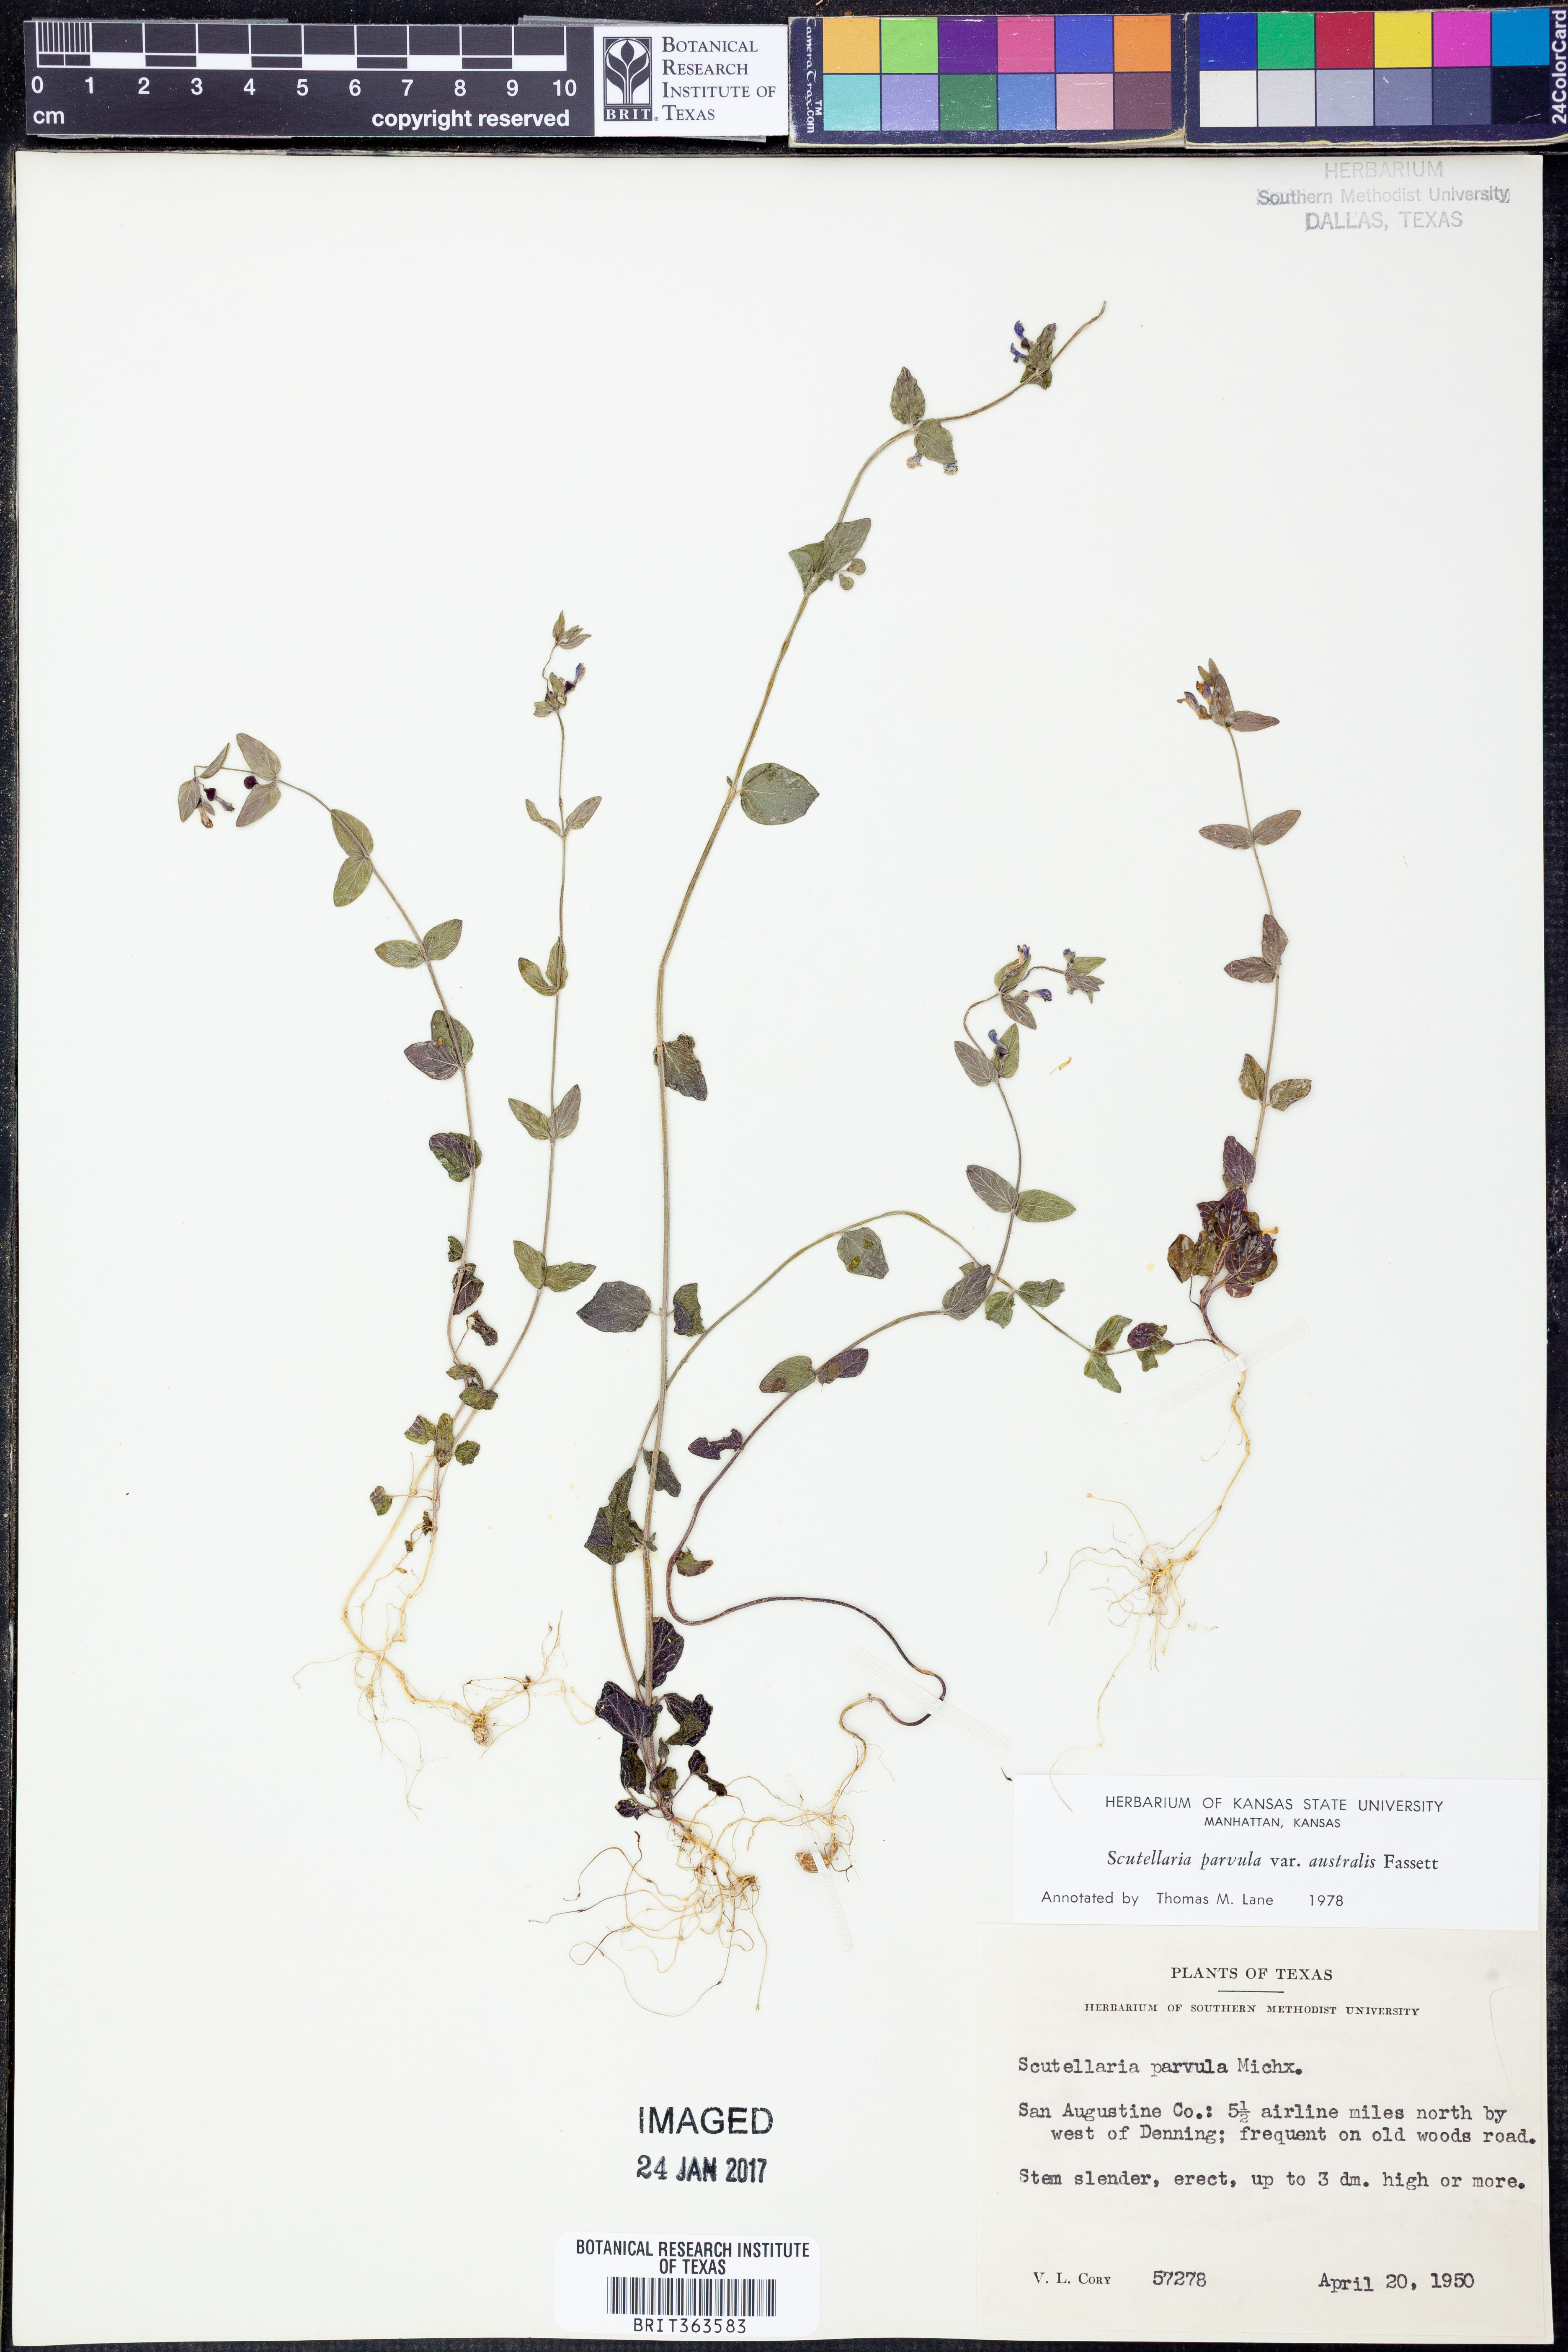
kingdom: Plantae
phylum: Tracheophyta
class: Magnoliopsida
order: Lamiales
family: Lamiaceae
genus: Scutellaria
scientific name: Scutellaria parvula
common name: Little scullcap
